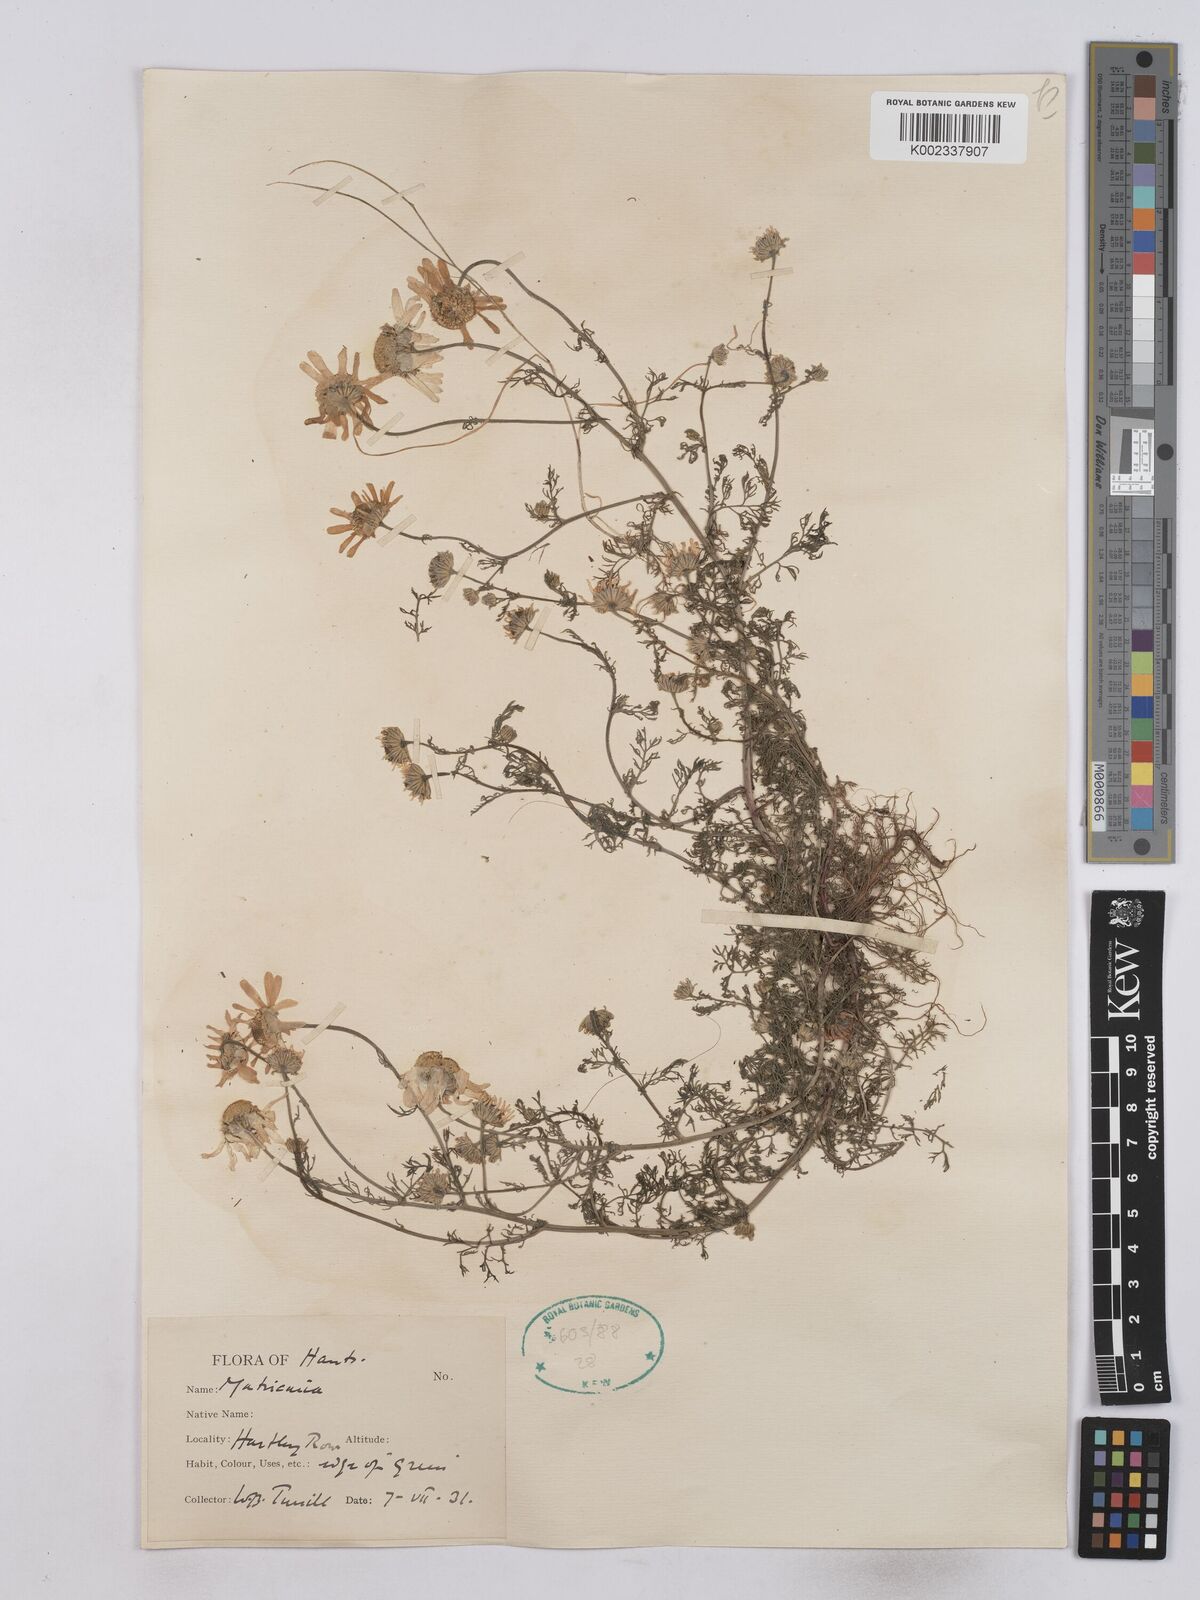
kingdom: Plantae
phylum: Tracheophyta
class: Magnoliopsida
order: Asterales
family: Asteraceae
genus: Matricaria
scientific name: Matricaria discoidea
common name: Disc mayweed
